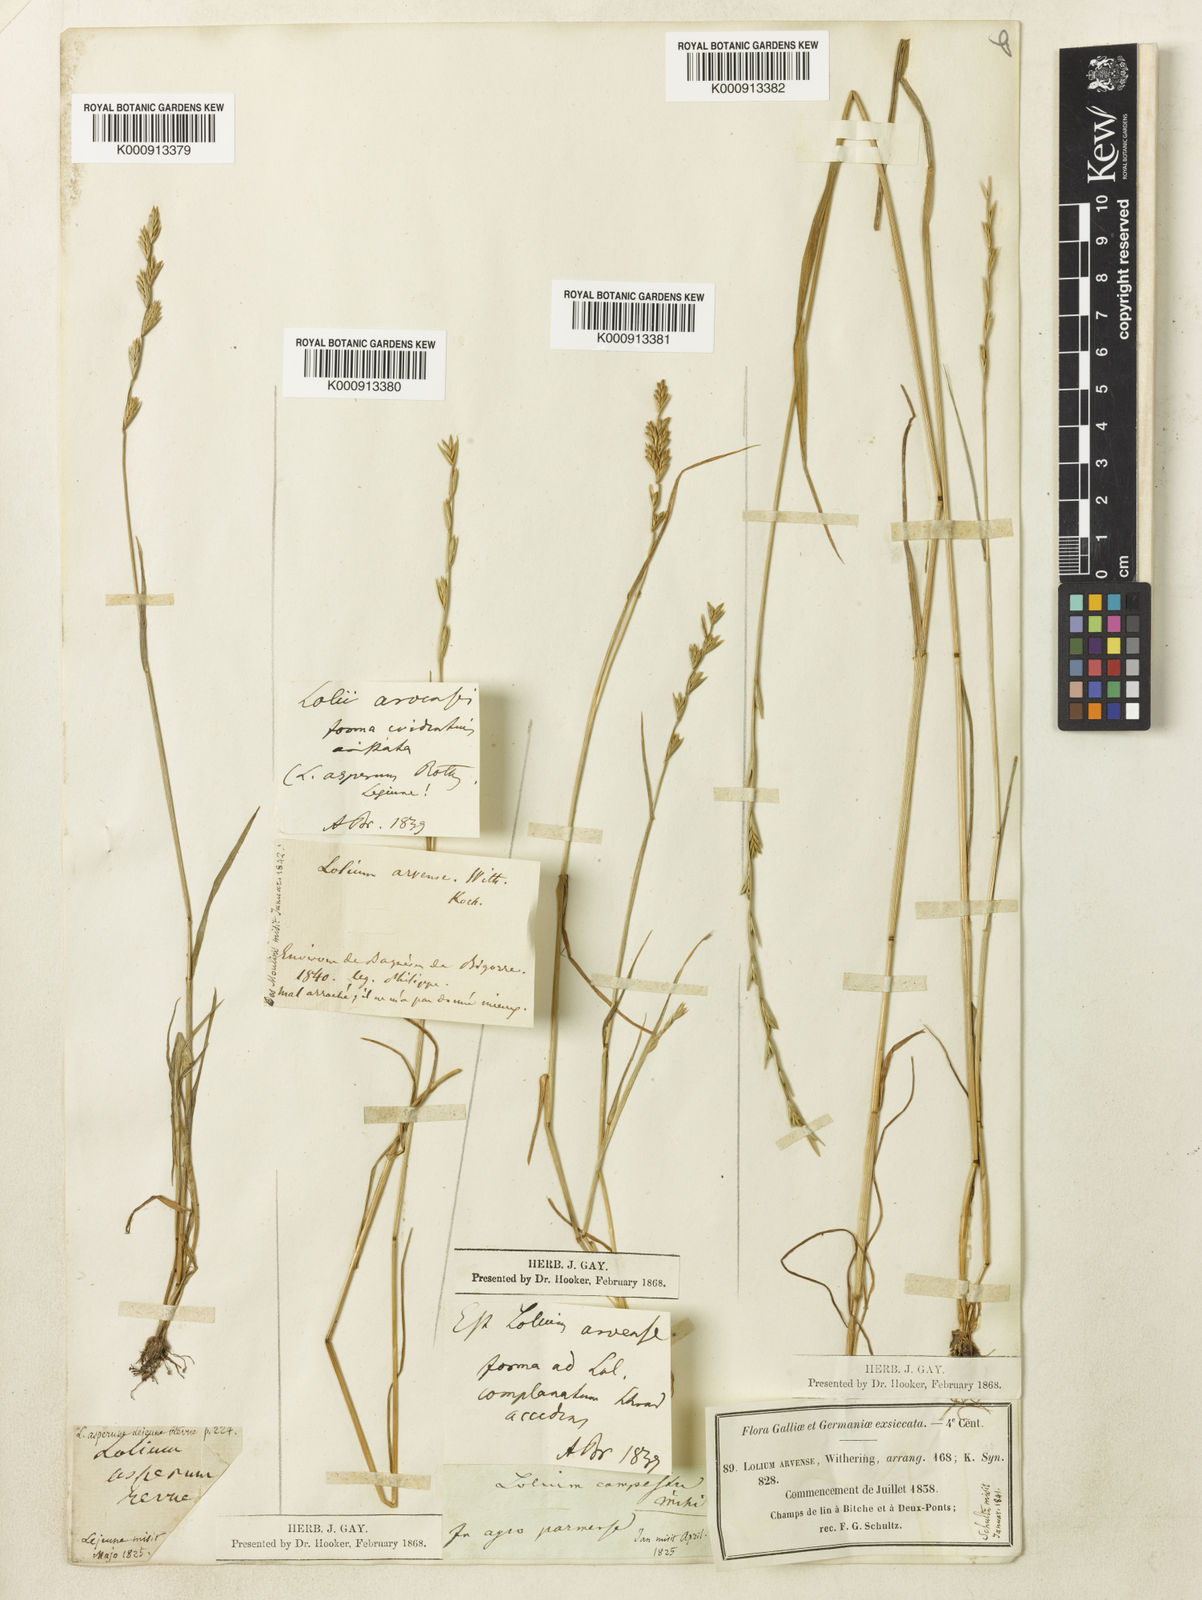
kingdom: Plantae
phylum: Tracheophyta
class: Liliopsida
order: Poales
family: Poaceae
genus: Lolium
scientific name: Lolium remotum
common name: Flaxfield rye-grass
